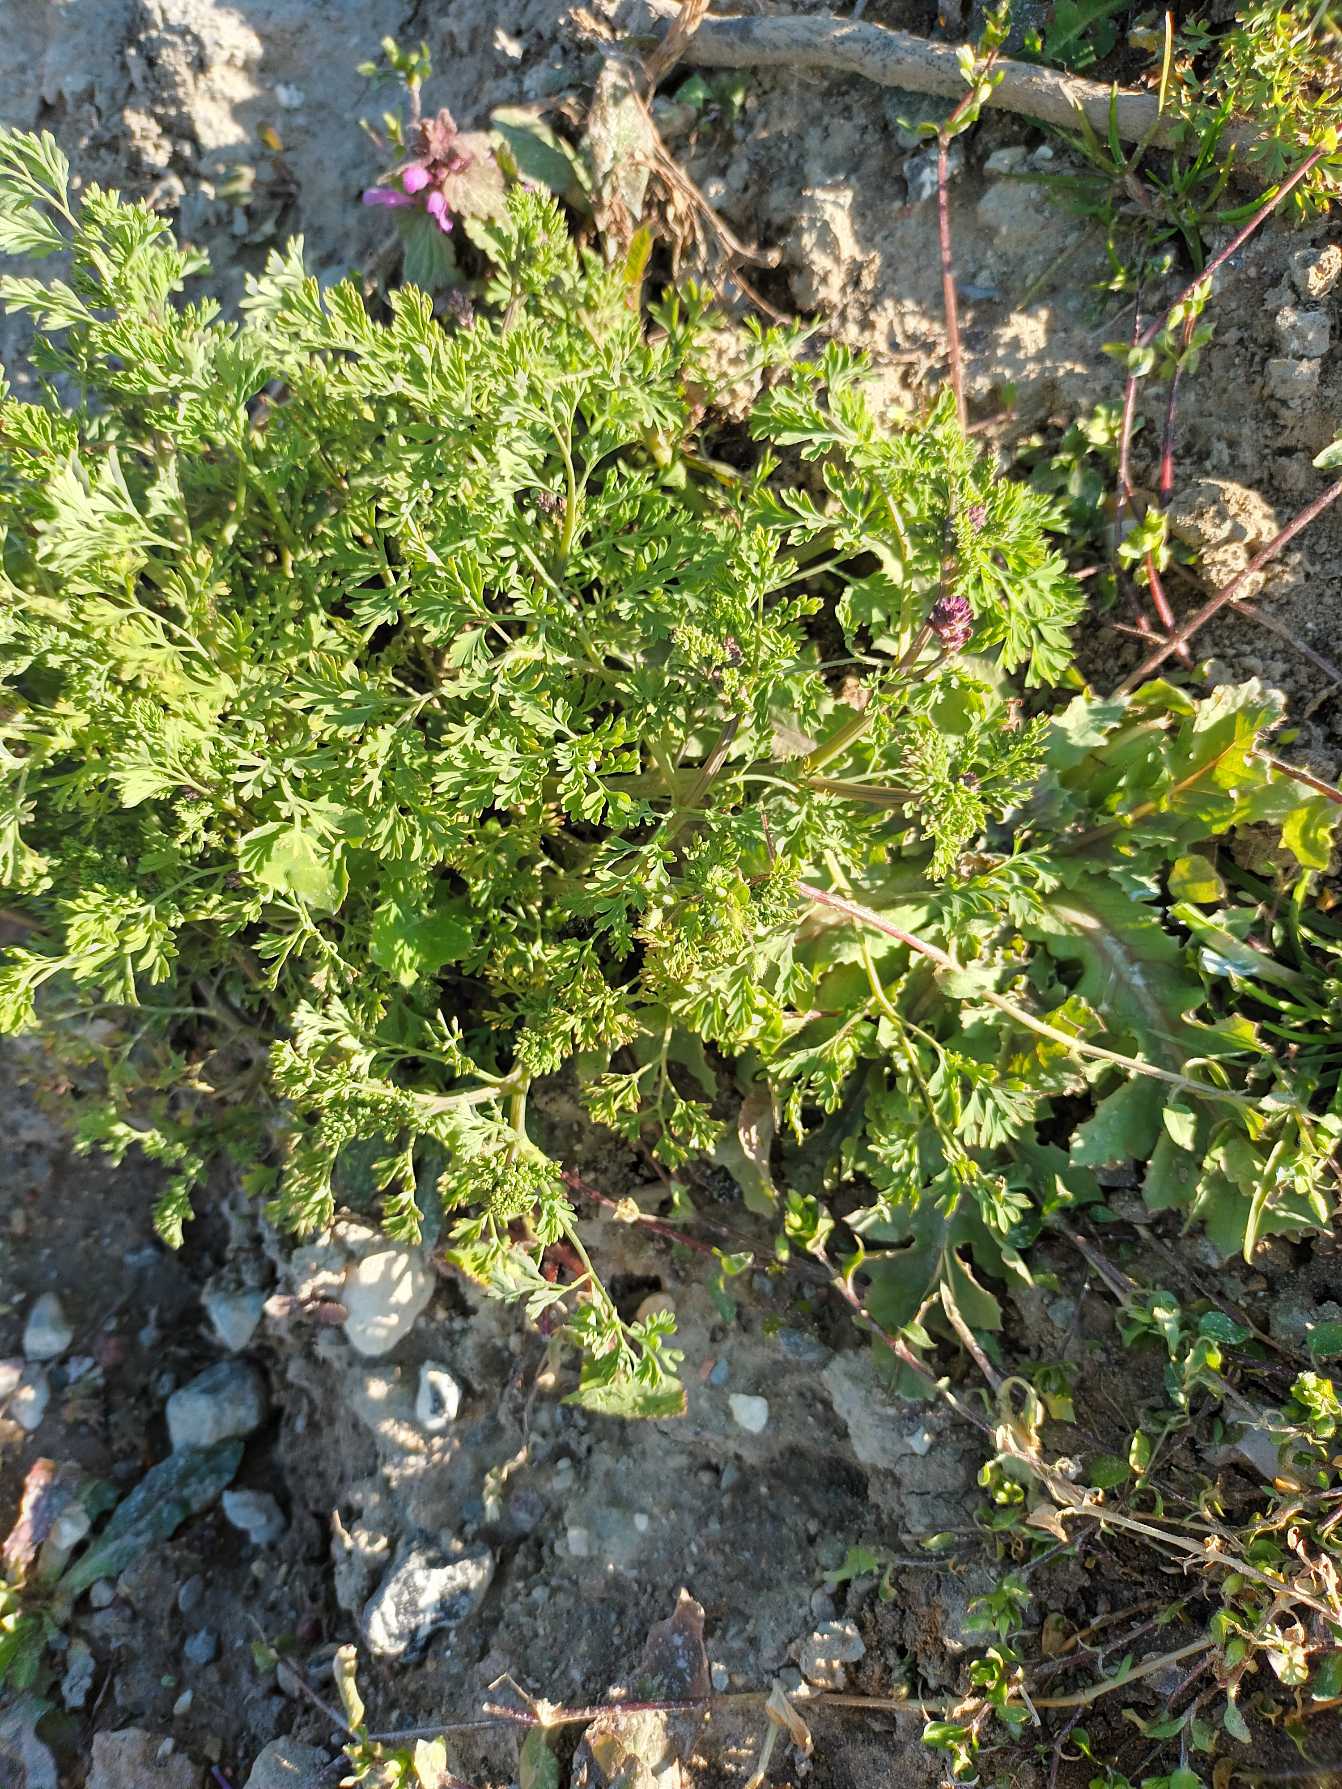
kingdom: Plantae
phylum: Tracheophyta
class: Magnoliopsida
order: Ranunculales
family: Papaveraceae
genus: Fumaria
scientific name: Fumaria officinalis
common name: Læge-jordrøg
